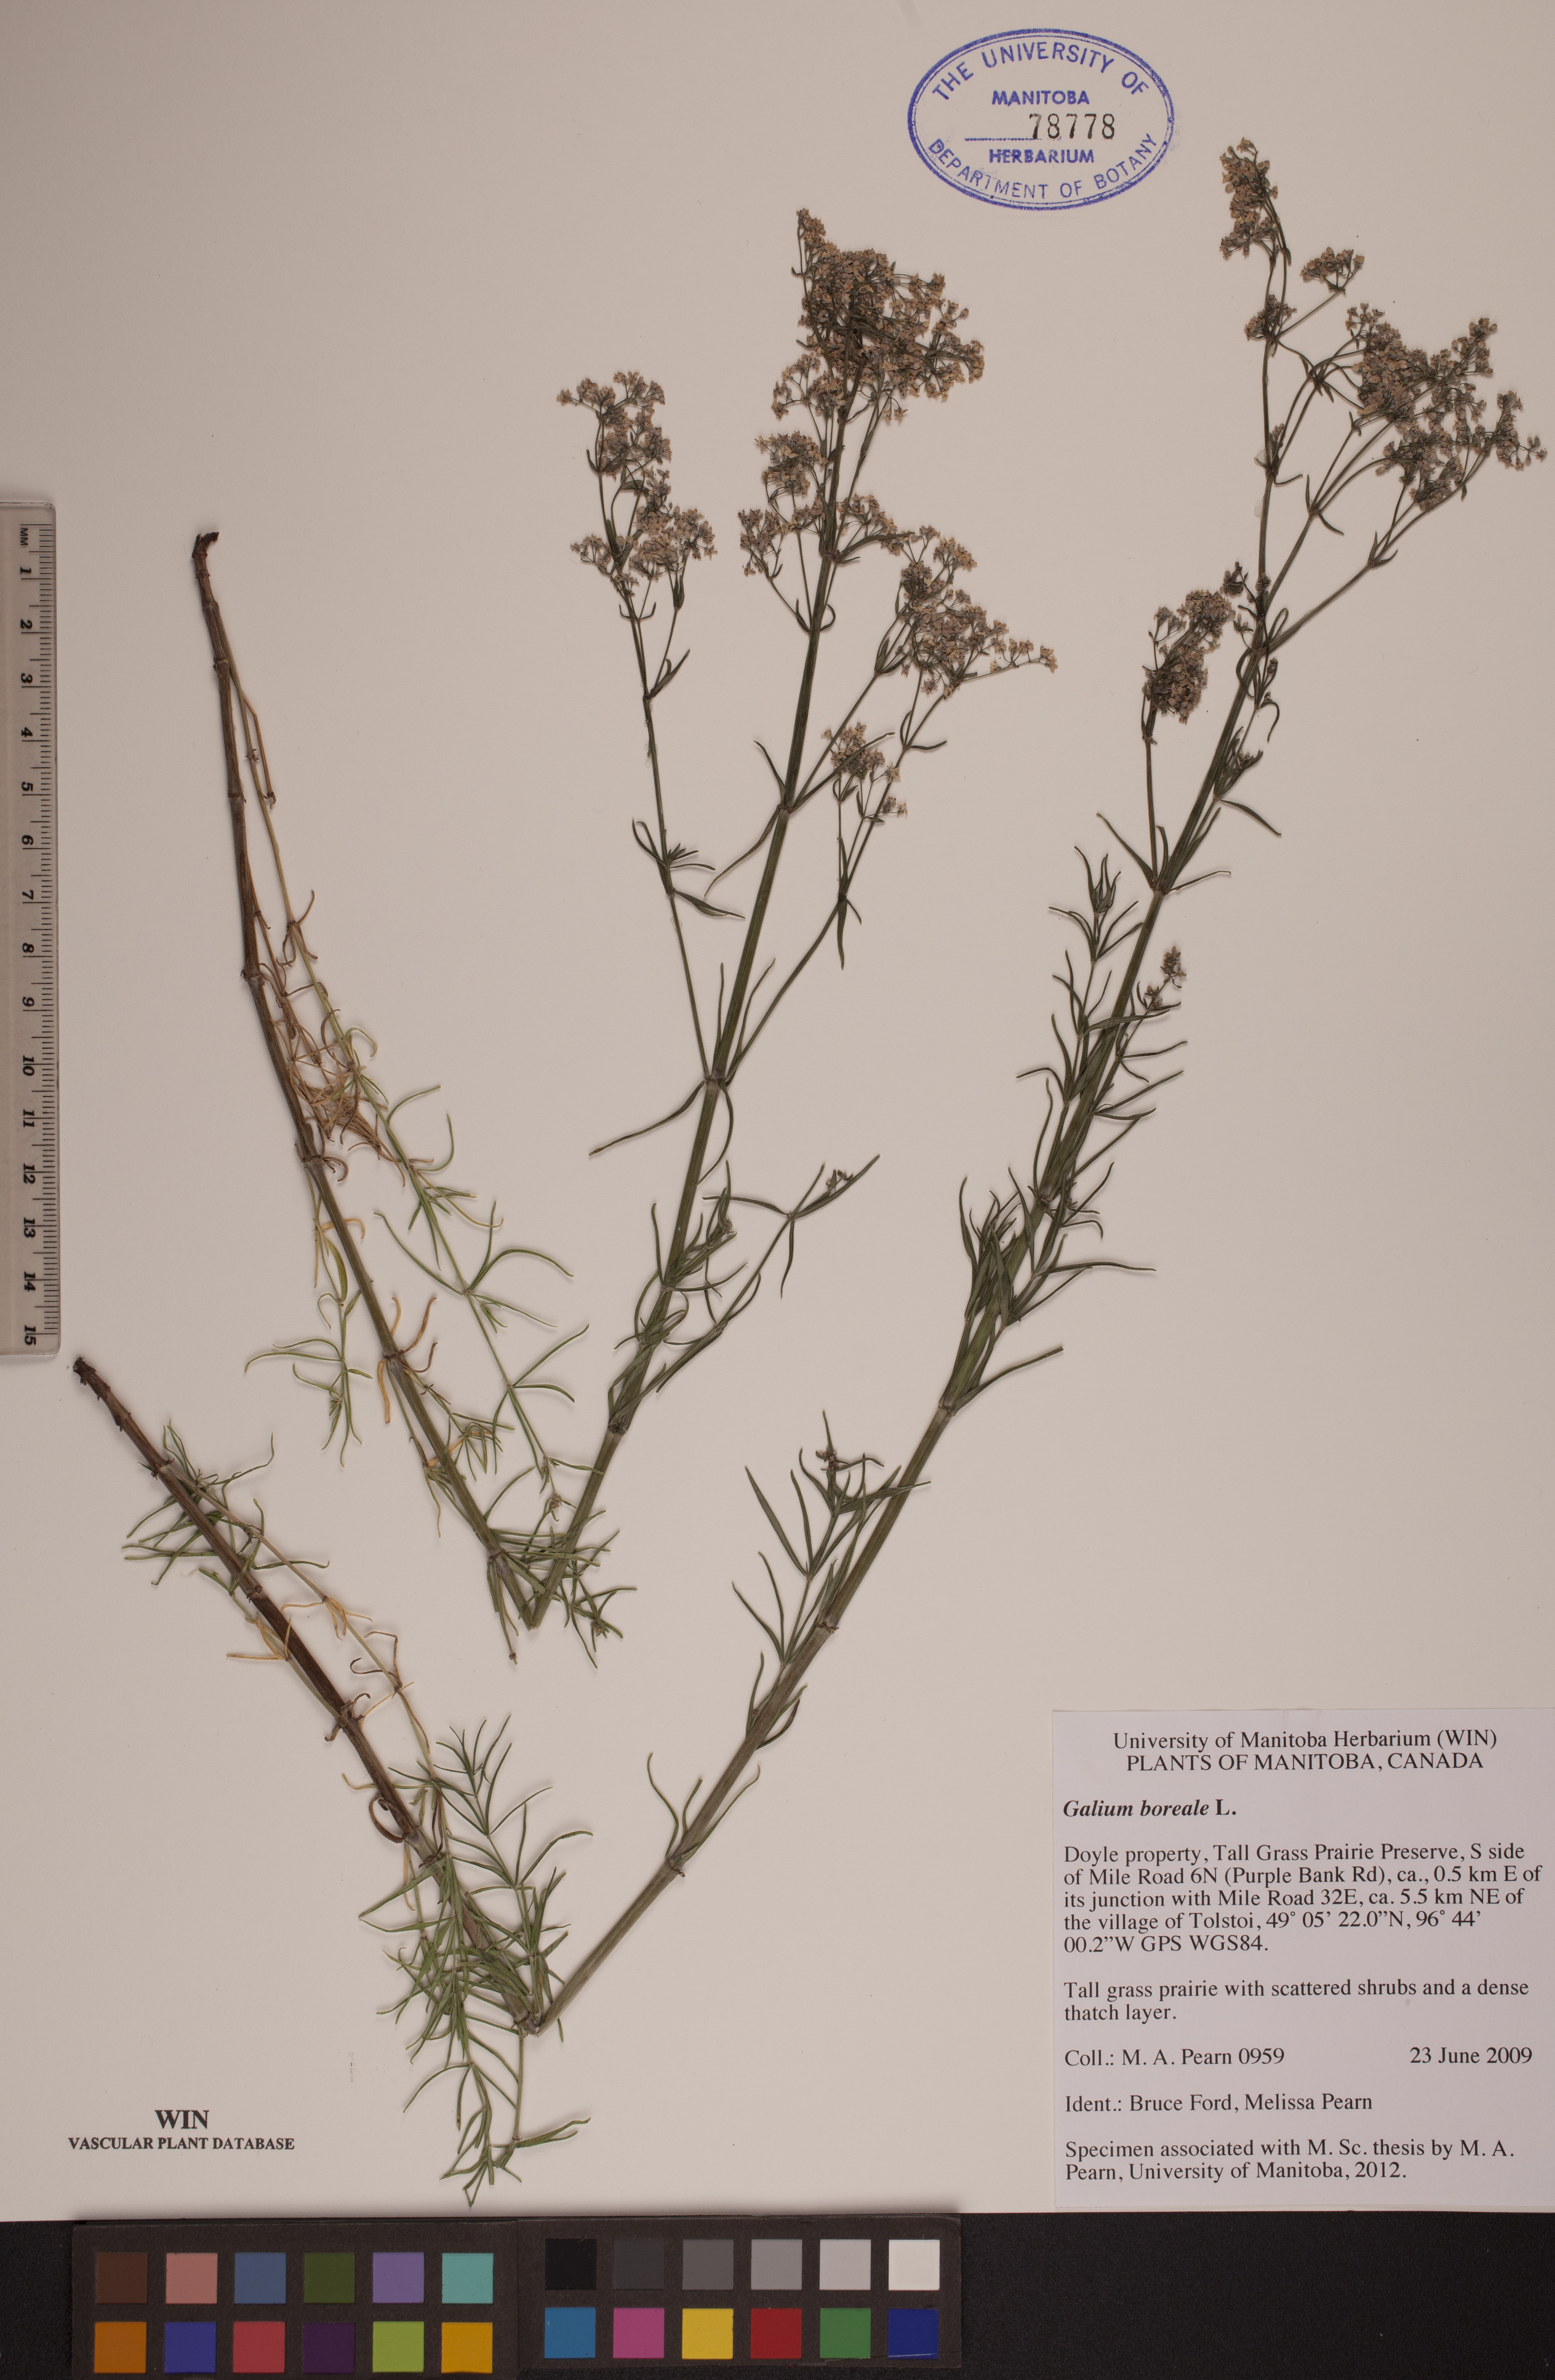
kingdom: Plantae
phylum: Tracheophyta
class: Magnoliopsida
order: Gentianales
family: Rubiaceae
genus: Galium
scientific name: Galium boreale
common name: Northern bedstraw
